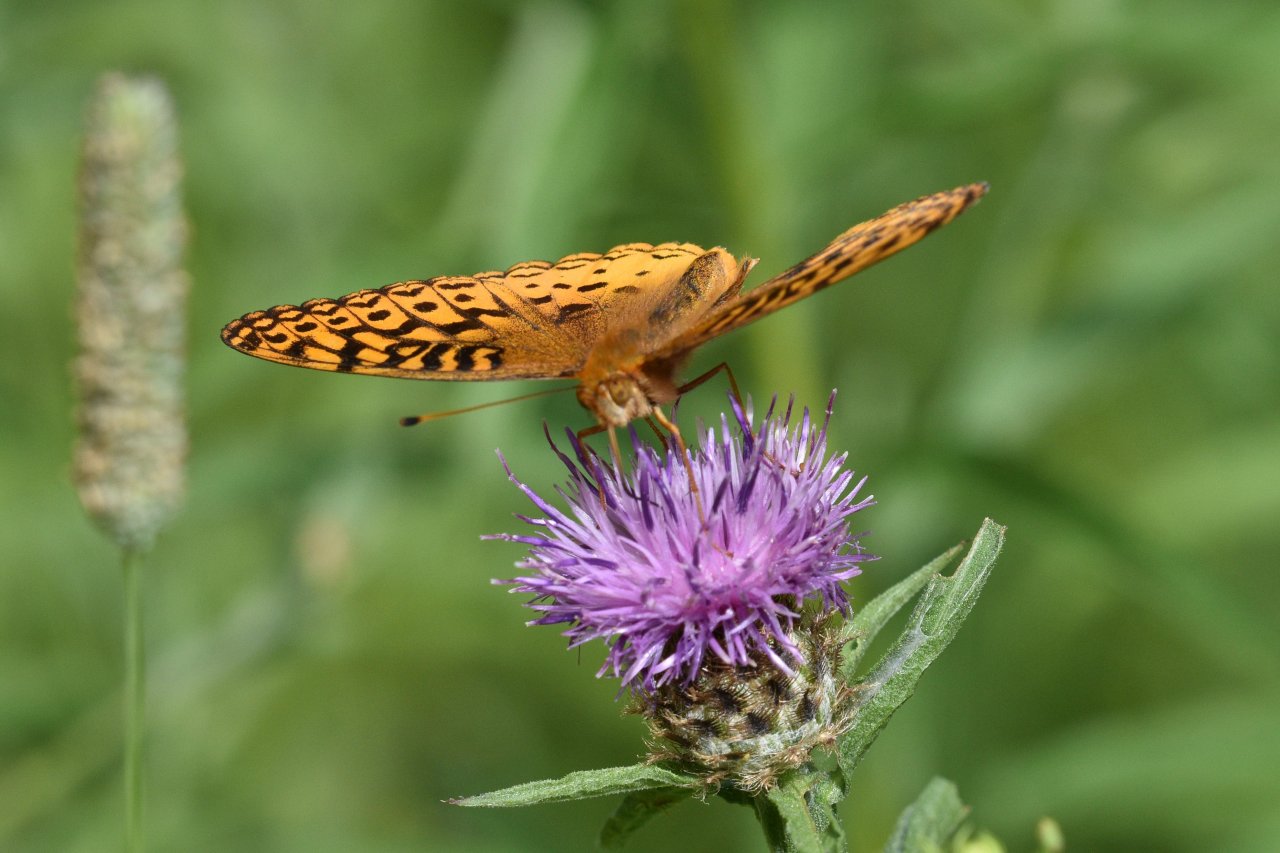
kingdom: Animalia
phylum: Arthropoda
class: Insecta
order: Lepidoptera
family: Nymphalidae
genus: Speyeria
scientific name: Speyeria cybele
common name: Great Spangled Fritillary
